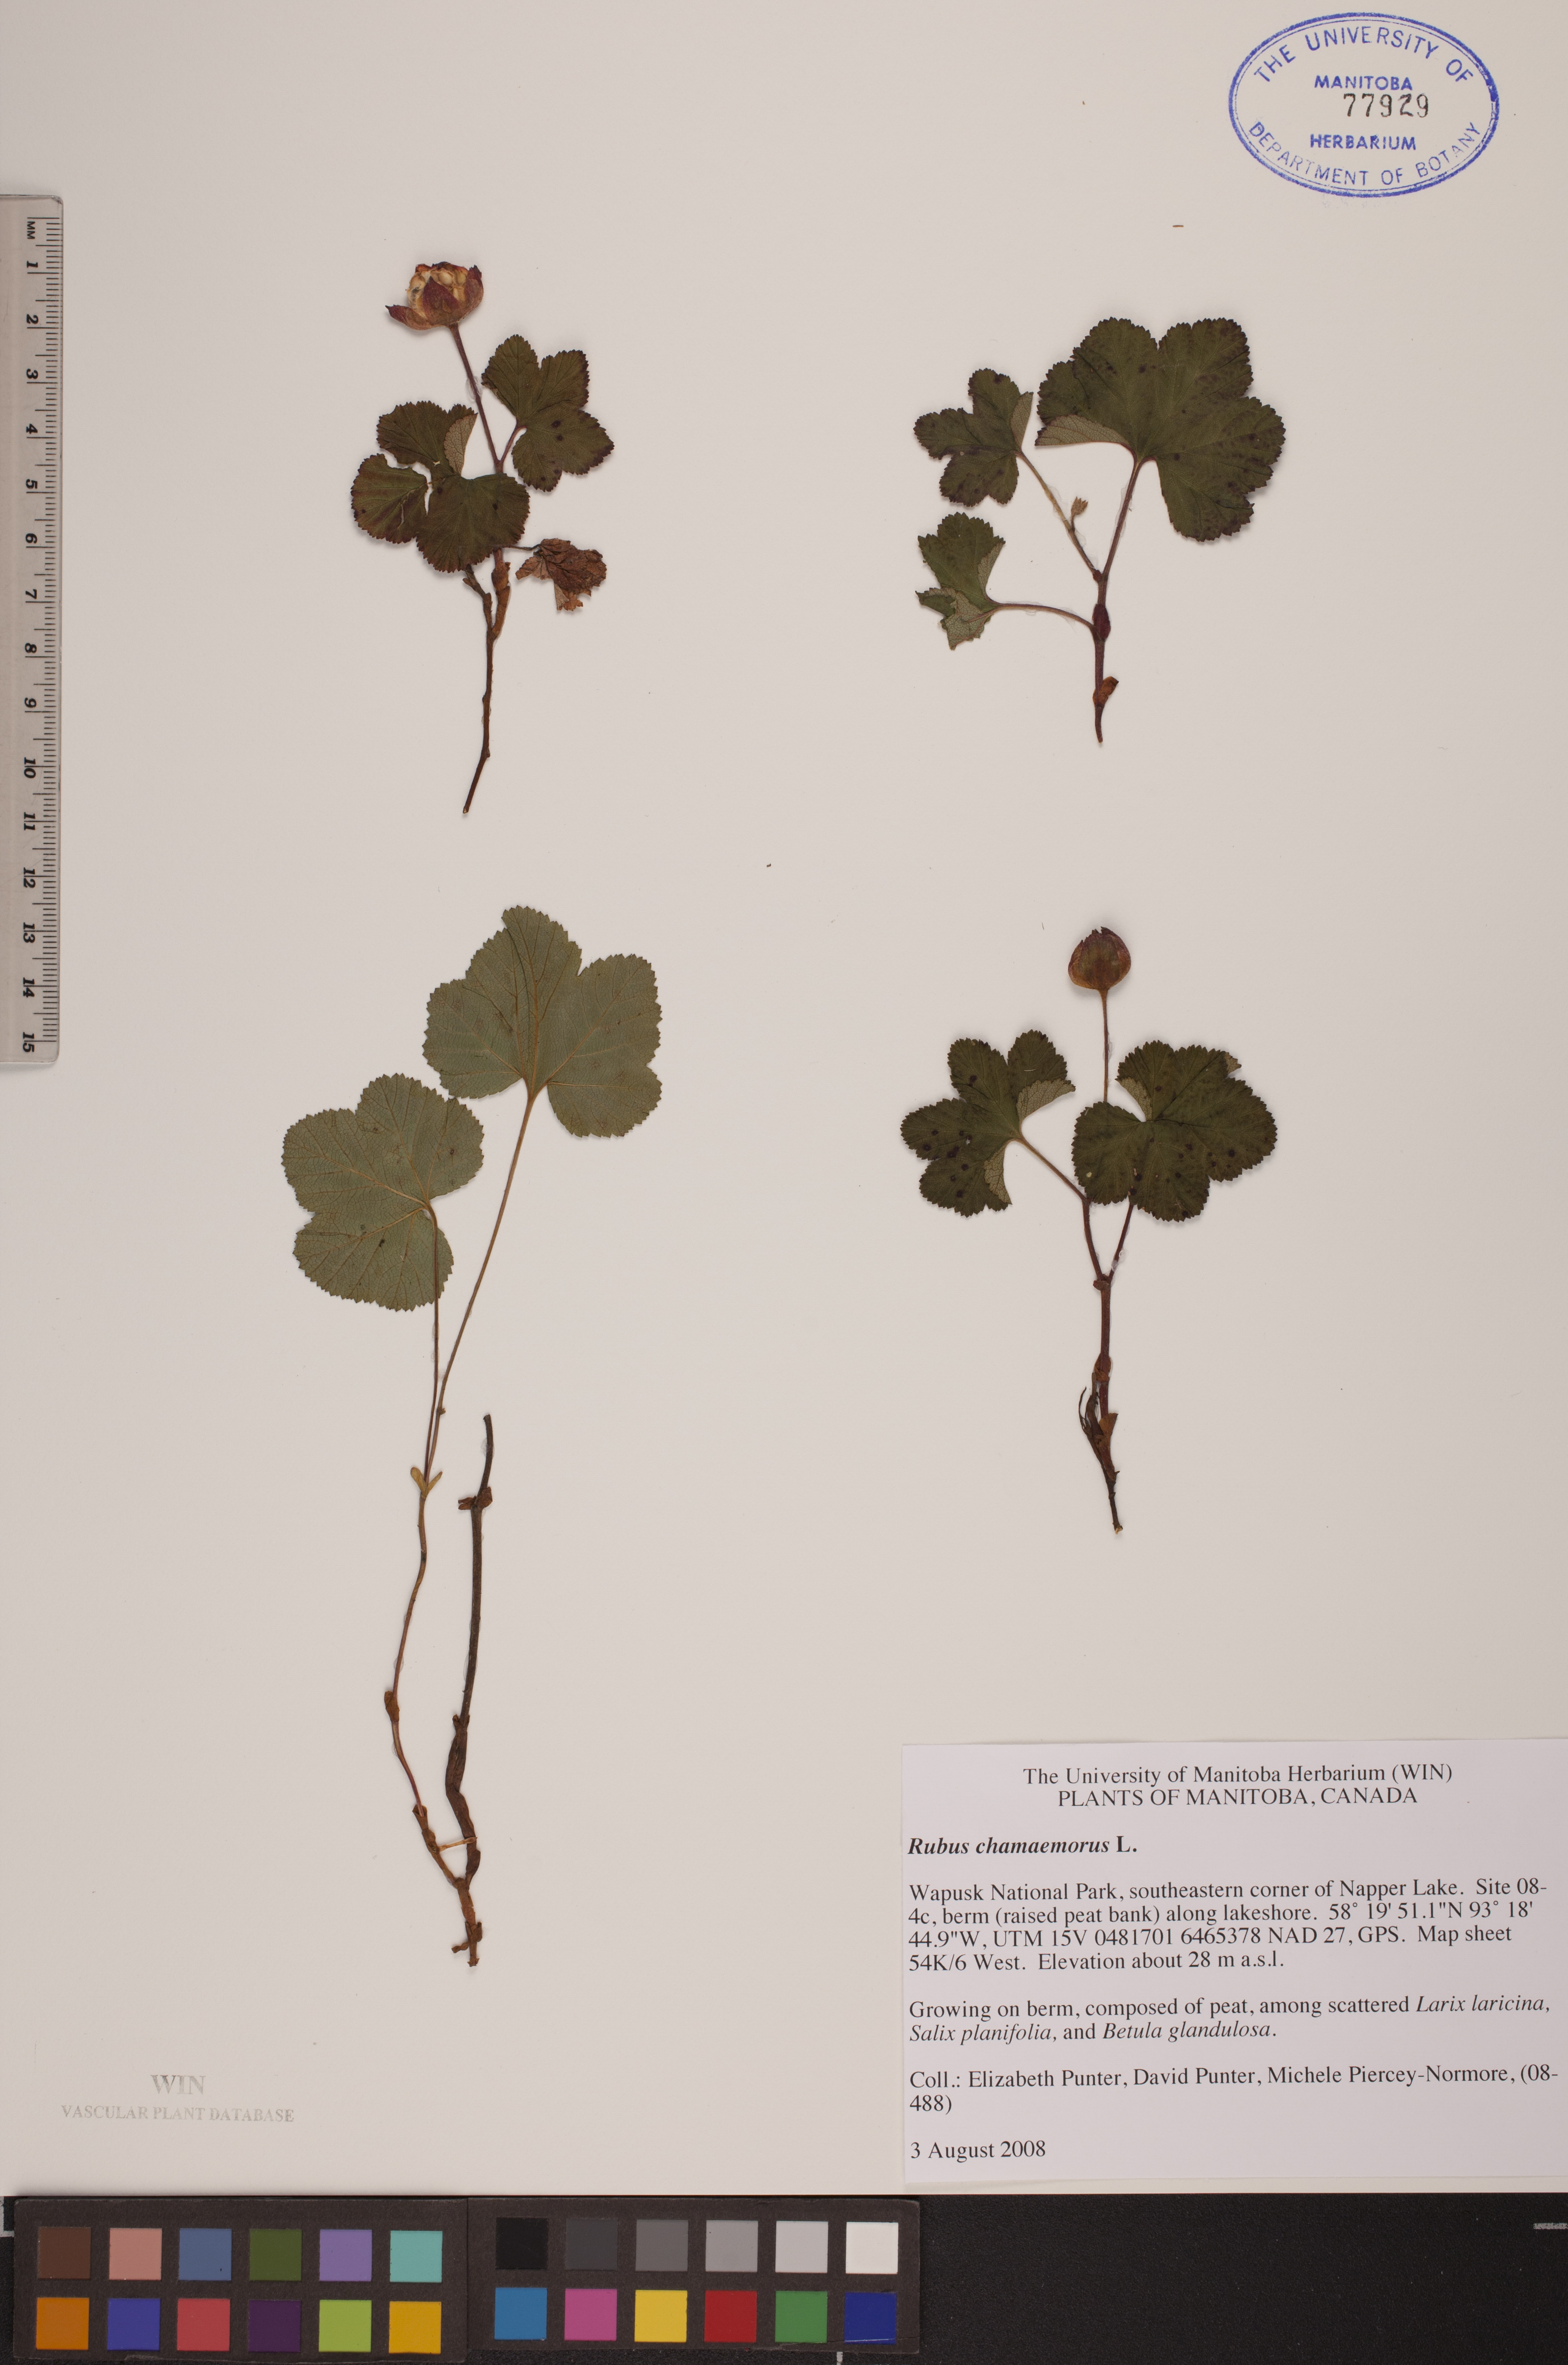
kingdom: Plantae
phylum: Tracheophyta
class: Magnoliopsida
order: Rosales
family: Rosaceae
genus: Rubus
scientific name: Rubus chamaemorus
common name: Cloudberry
